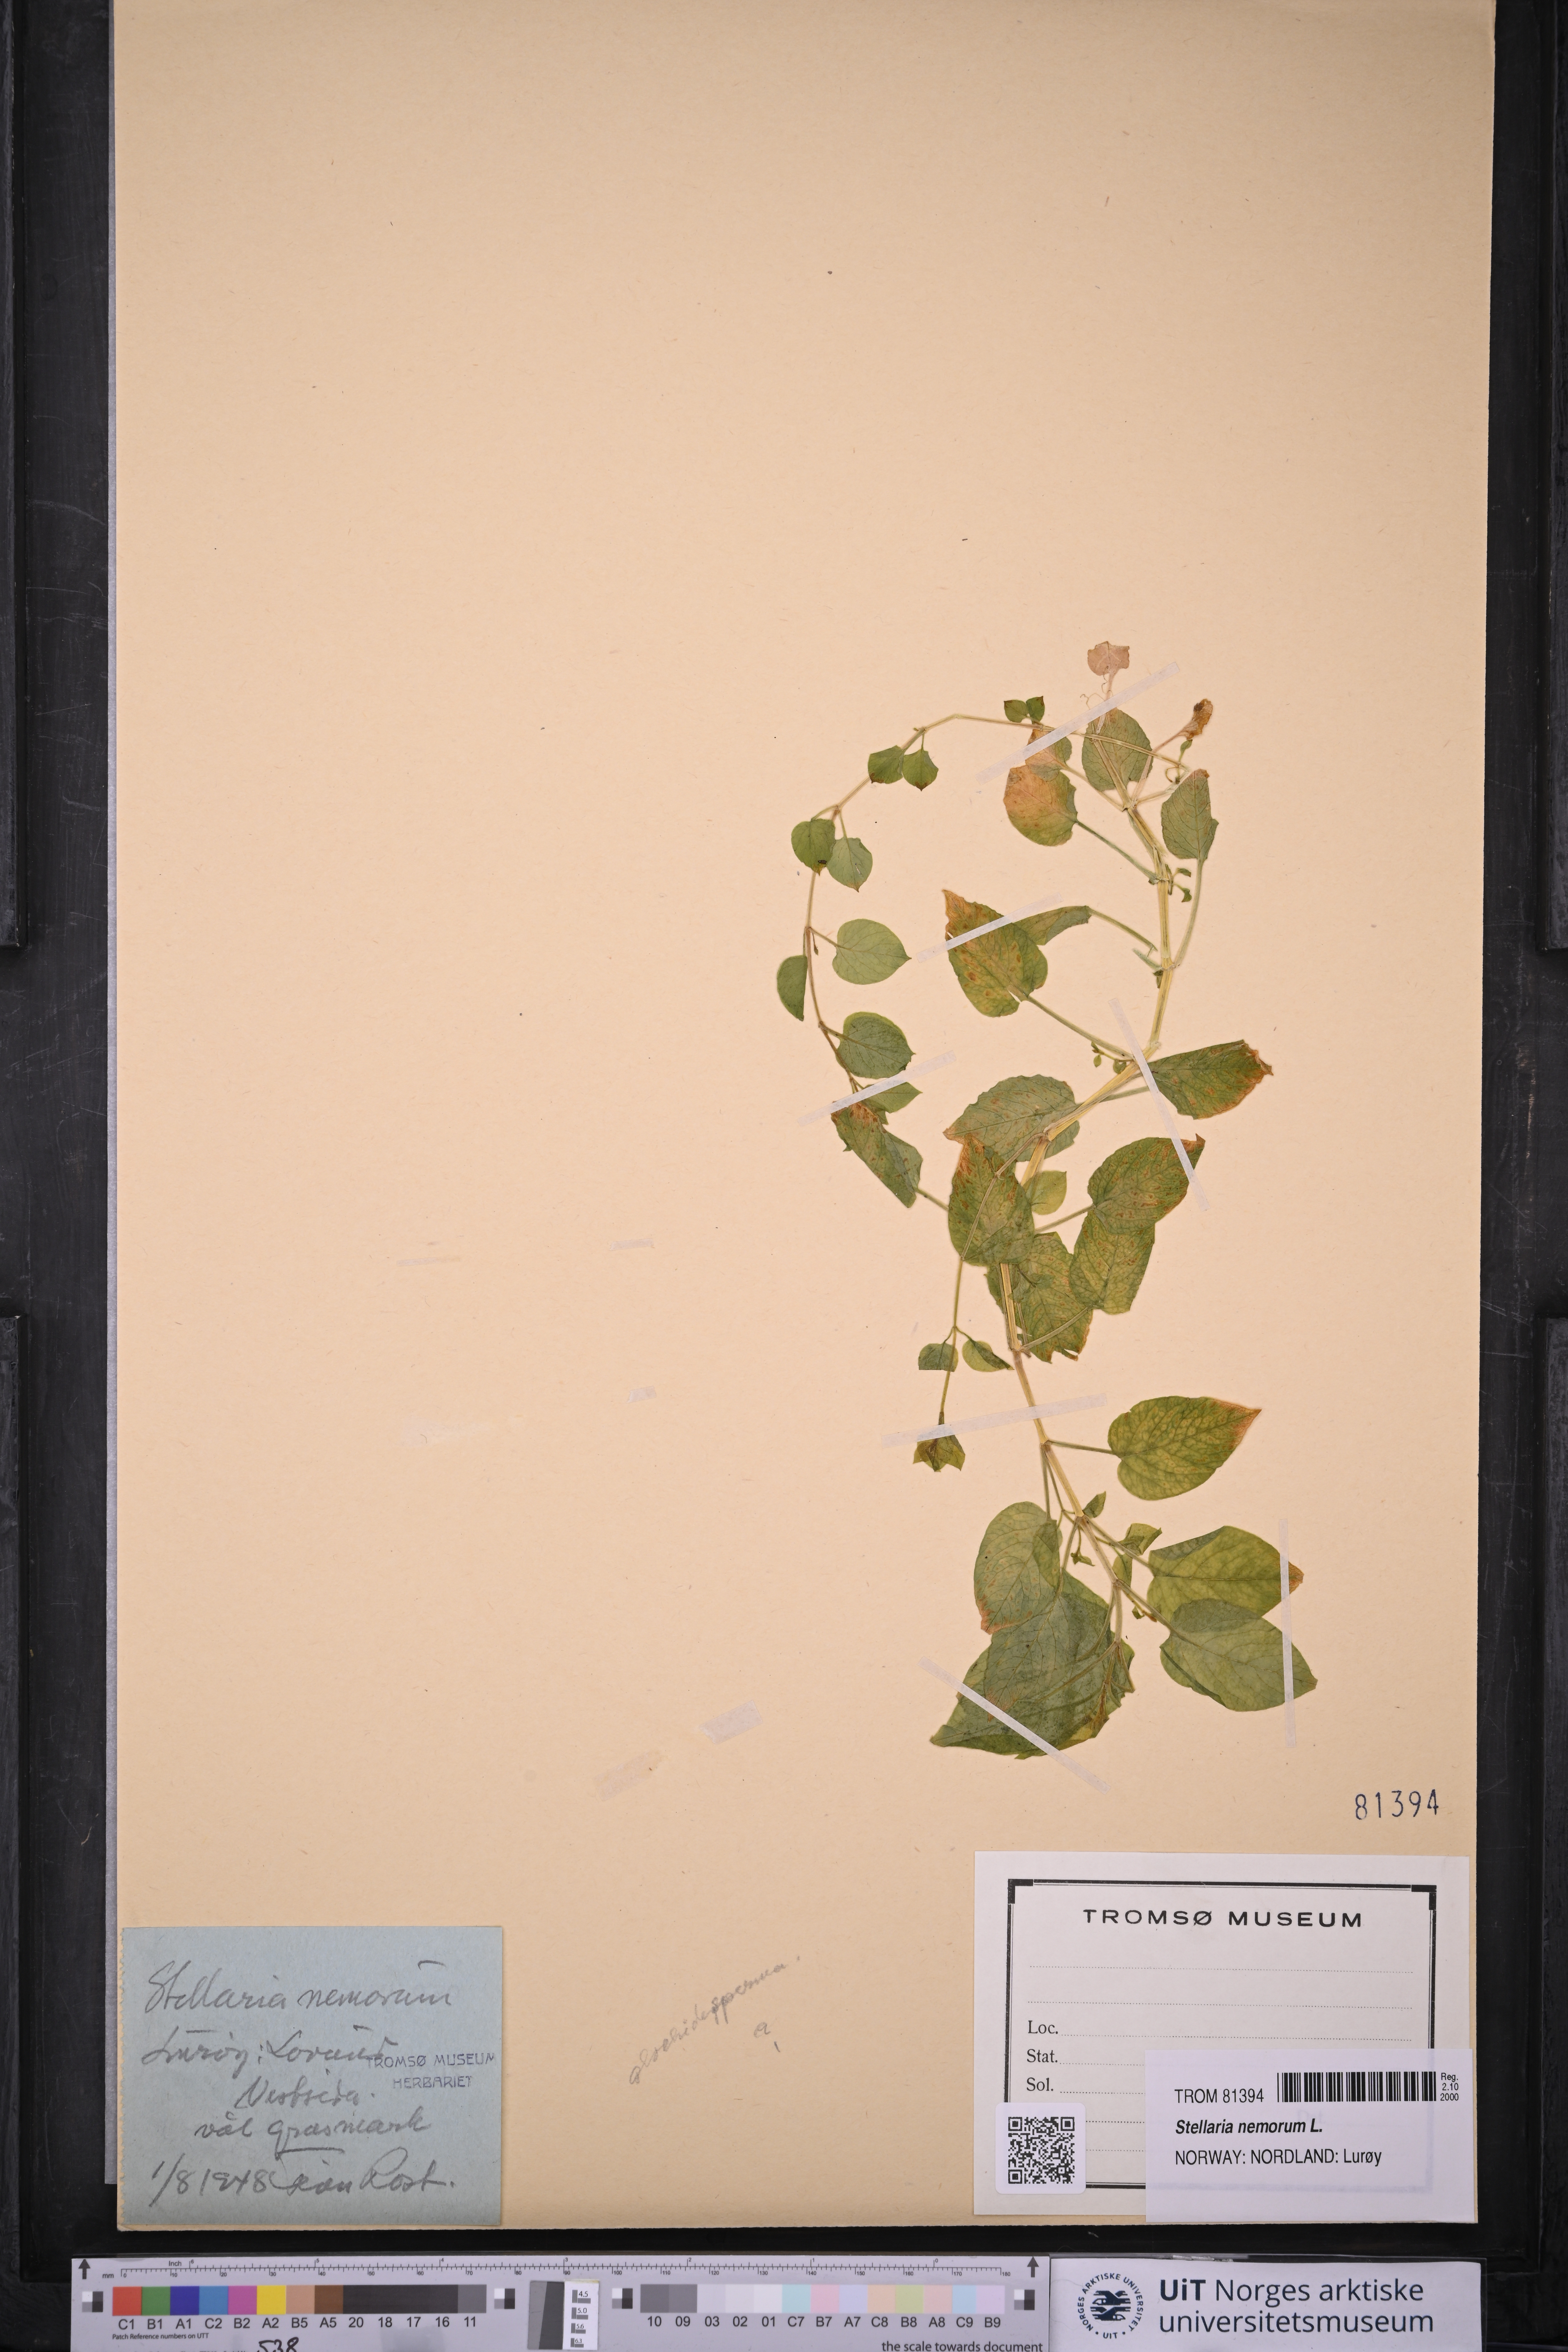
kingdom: Plantae
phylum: Tracheophyta
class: Magnoliopsida
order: Caryophyllales
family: Caryophyllaceae
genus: Stellaria
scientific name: Stellaria nemorum
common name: Wood stitchwort
